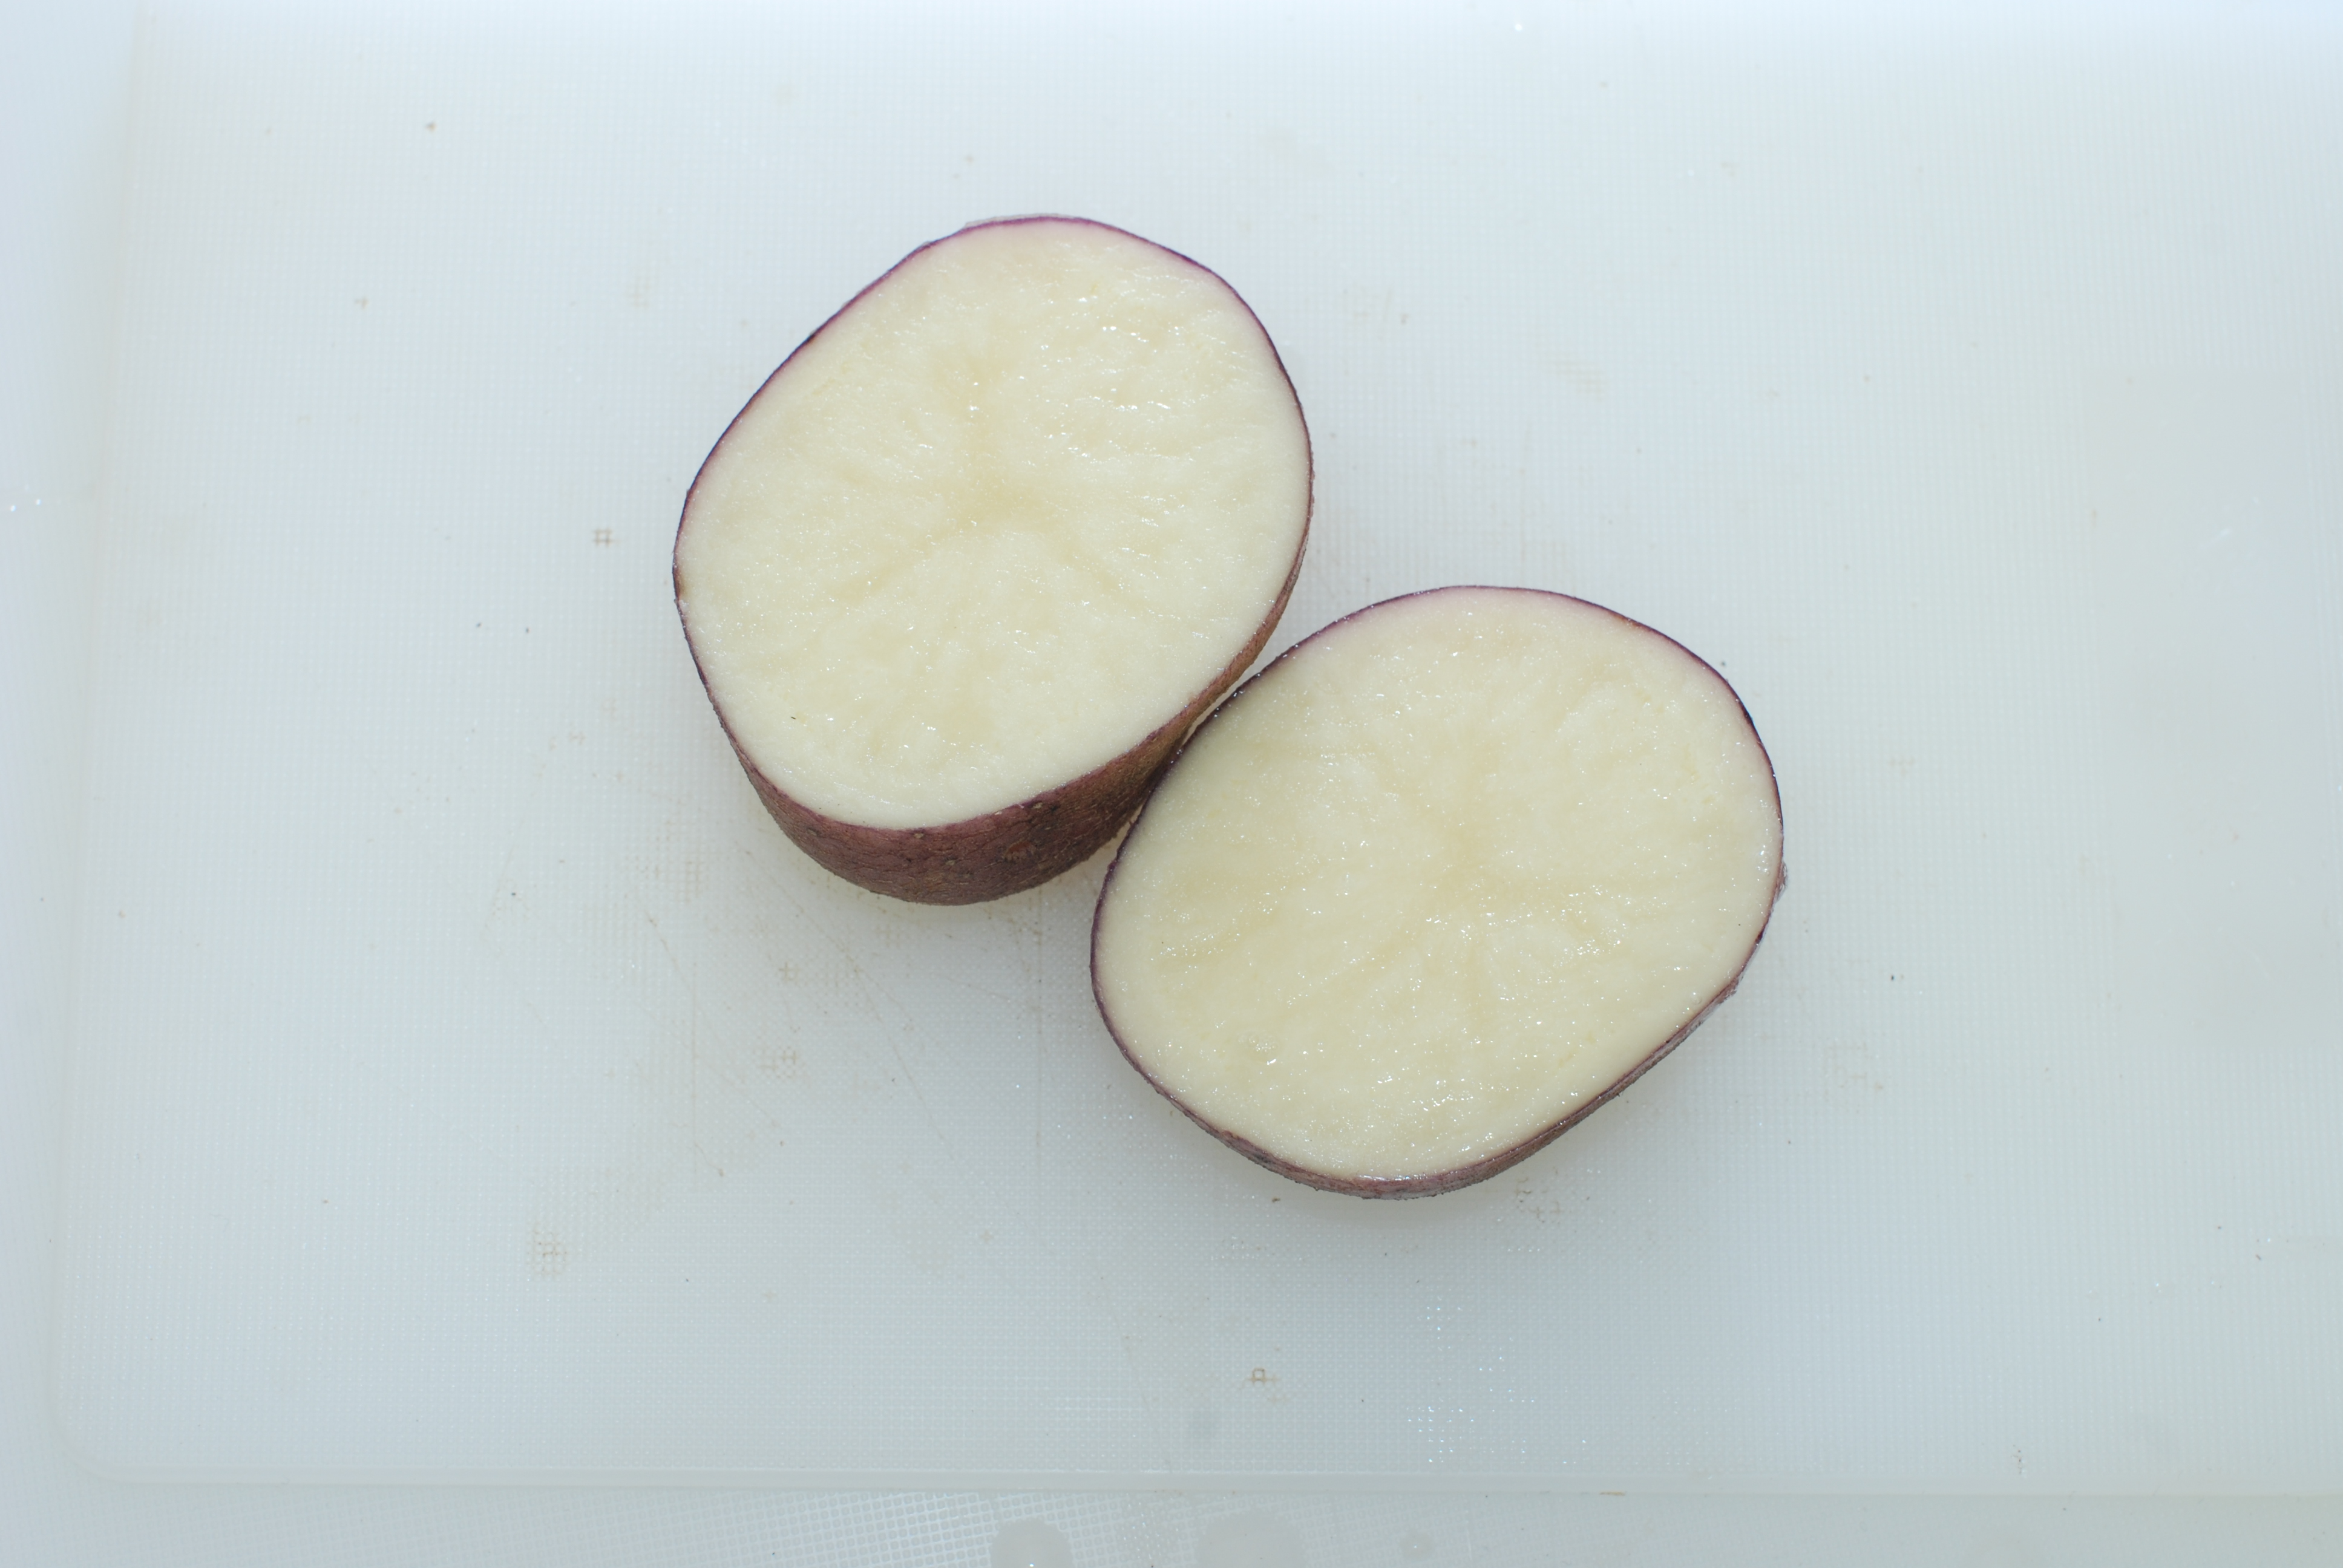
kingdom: Plantae
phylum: Tracheophyta
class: Magnoliopsida
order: Solanales
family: Solanaceae
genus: Solanum
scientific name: Solanum tuberosum
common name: Potato
